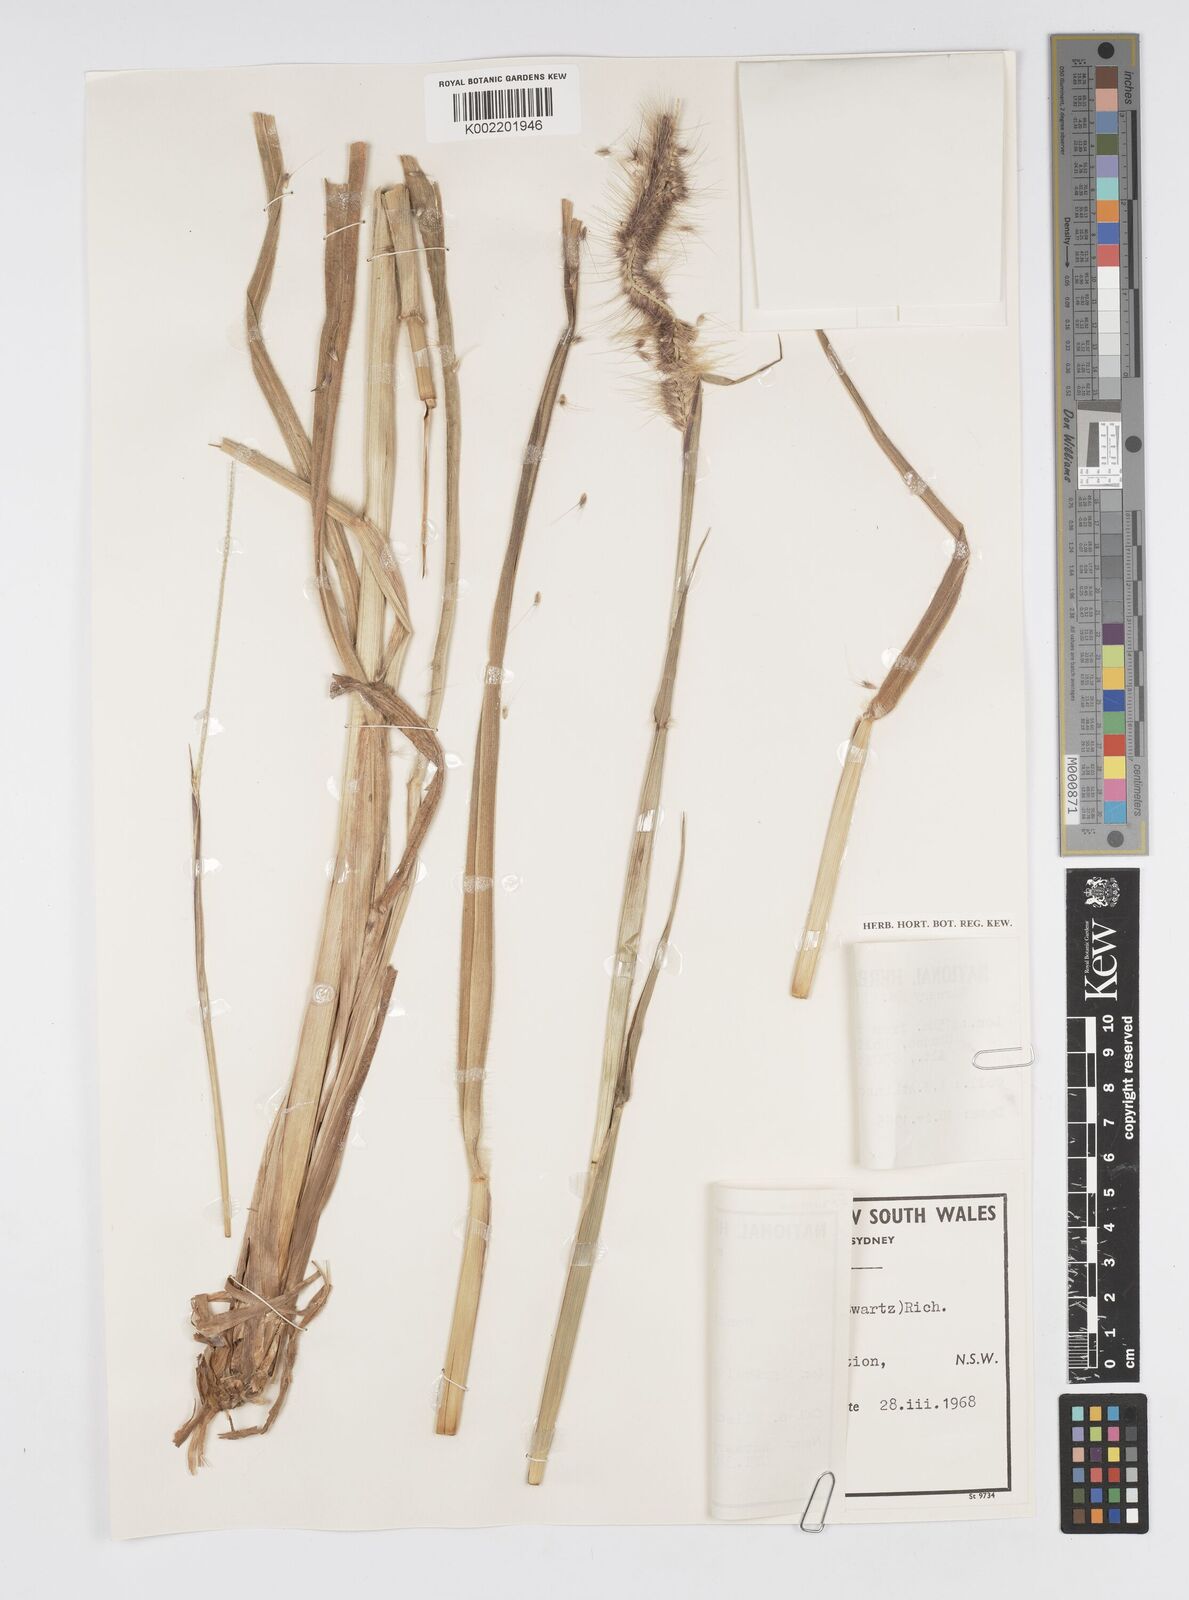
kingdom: Plantae
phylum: Tracheophyta
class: Liliopsida
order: Poales
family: Poaceae
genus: Setaria
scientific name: Setaria parviflora
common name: Knotroot bristle-grass
